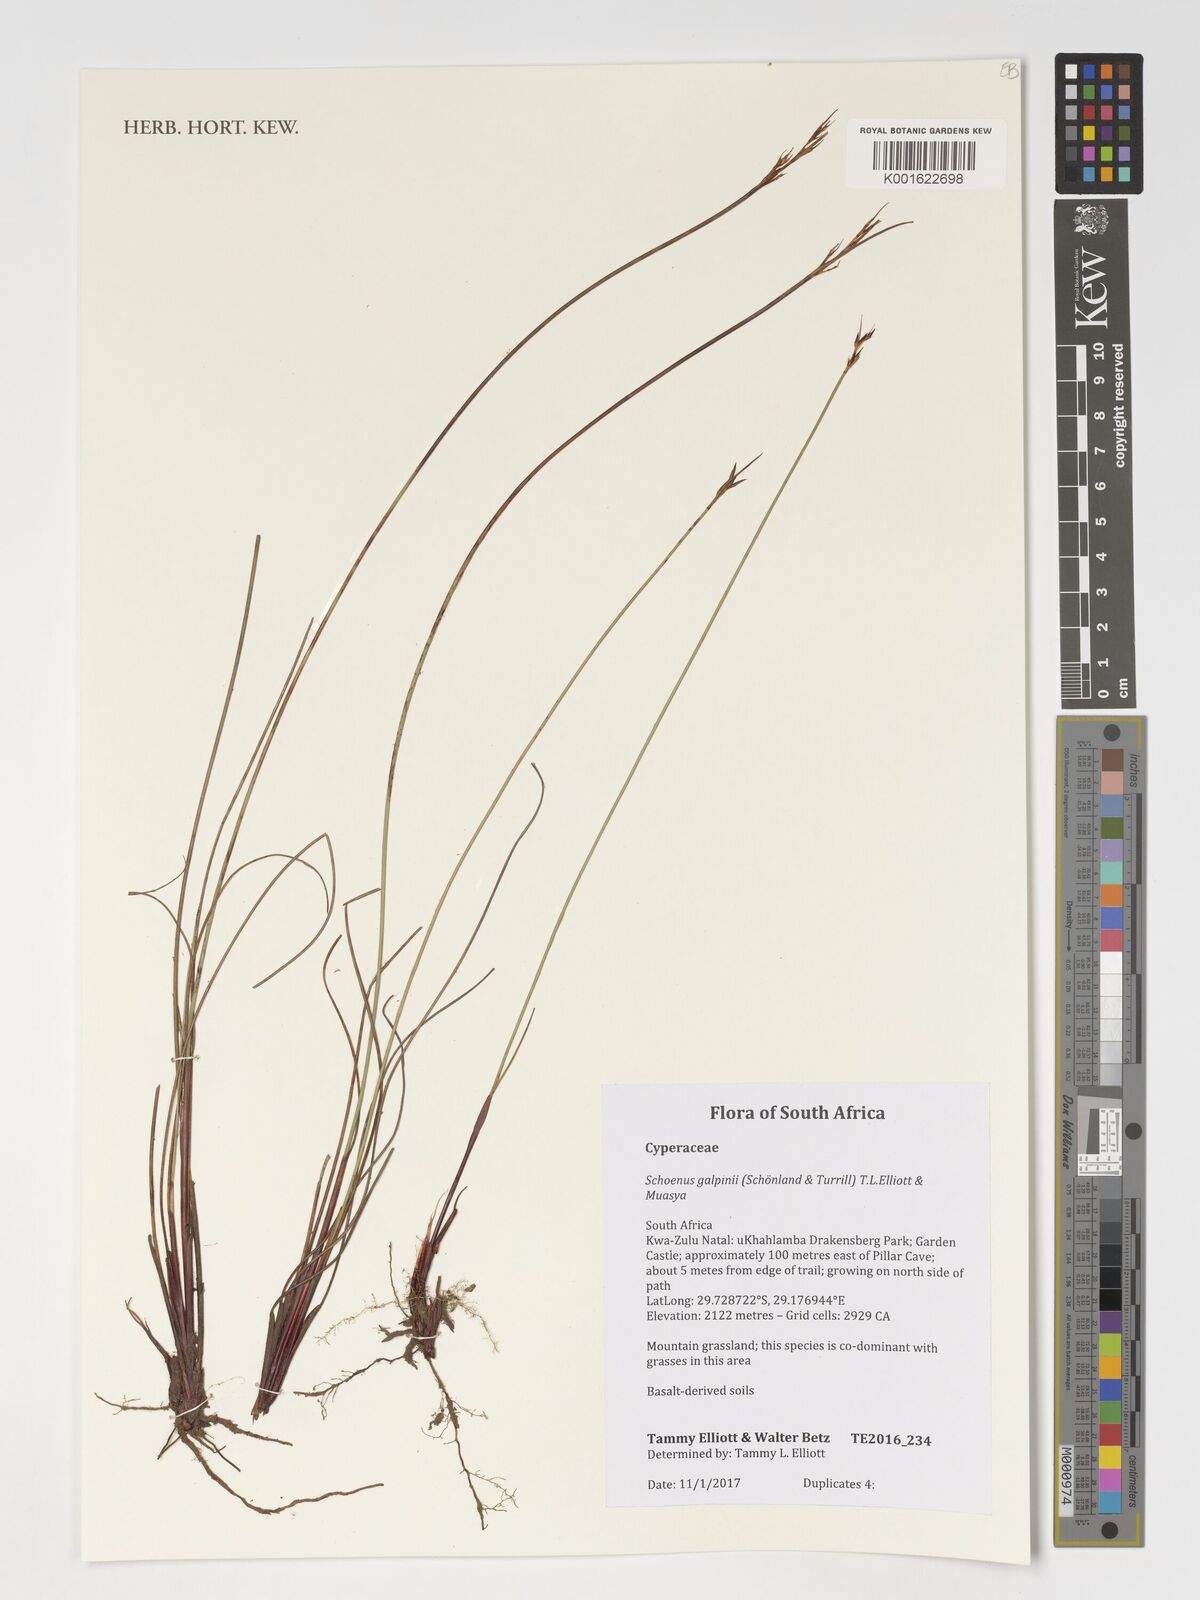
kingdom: Plantae
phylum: Tracheophyta
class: Liliopsida
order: Poales
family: Cyperaceae
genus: Schoenus
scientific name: Schoenus galpinii
